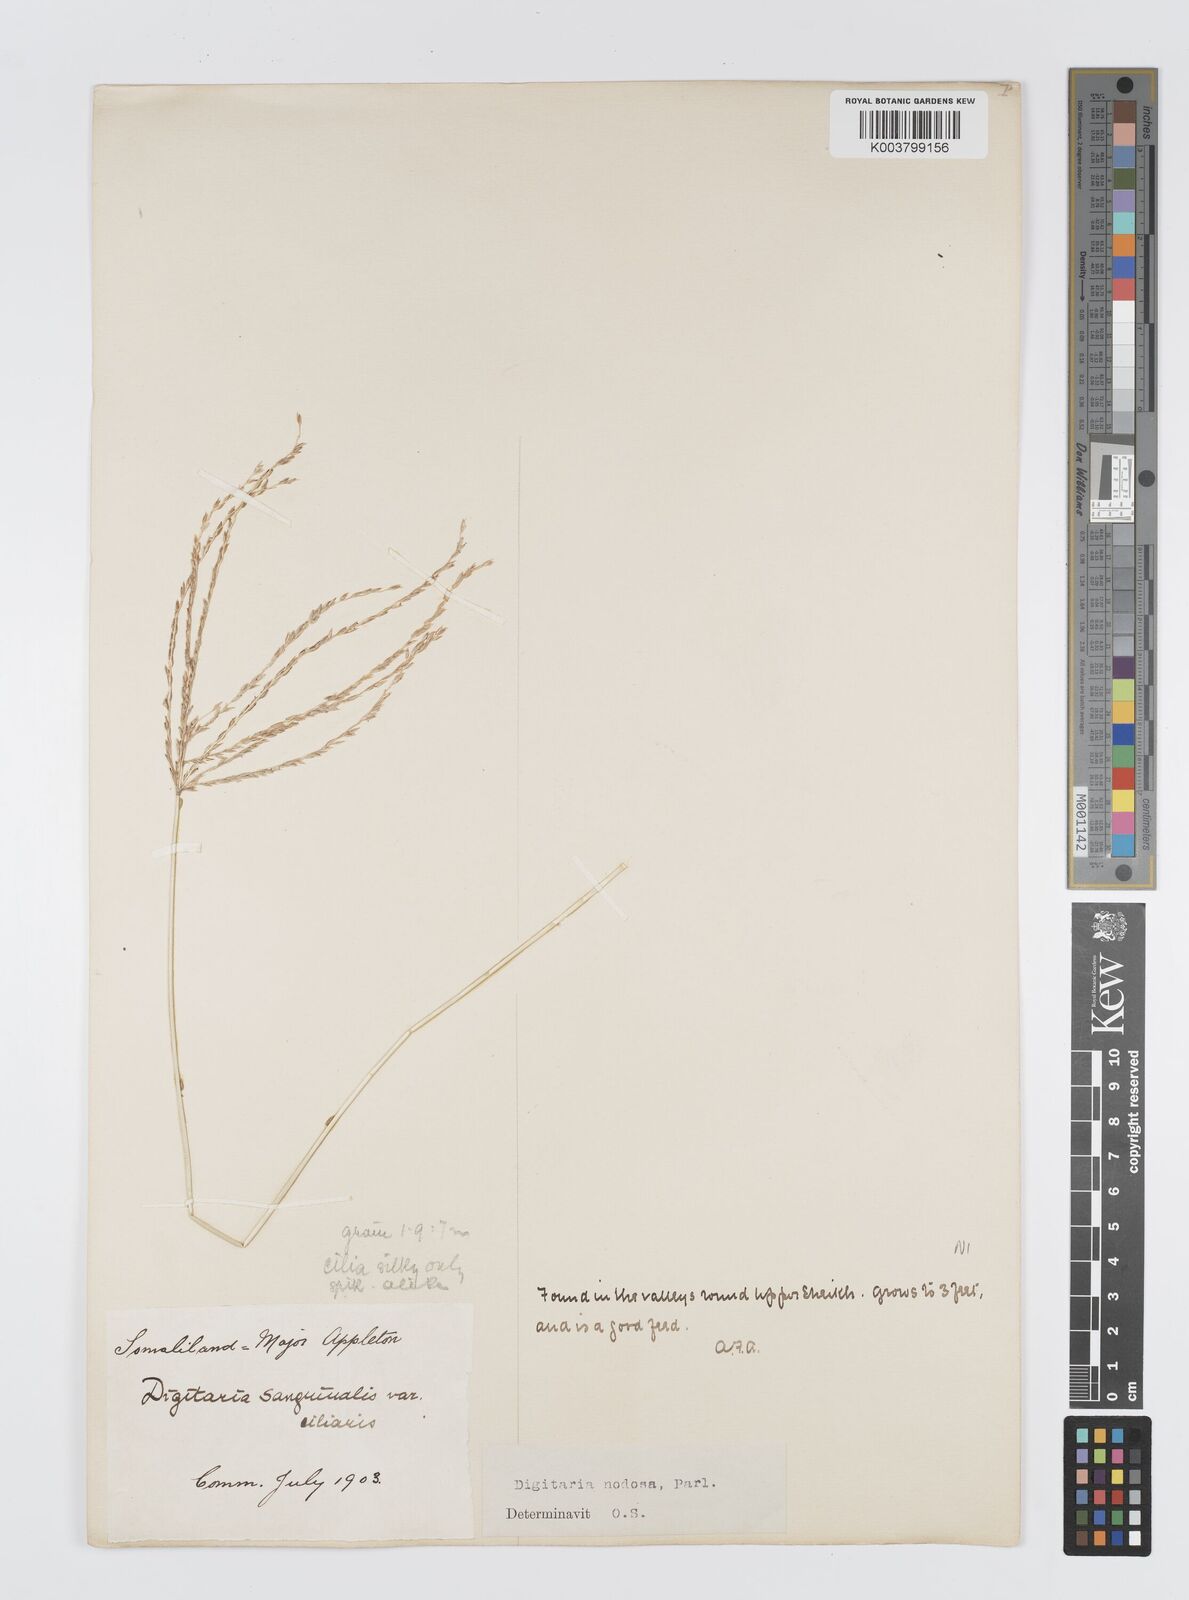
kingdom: Plantae
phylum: Tracheophyta
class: Liliopsida
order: Poales
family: Poaceae
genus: Digitaria
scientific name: Digitaria nodosa
